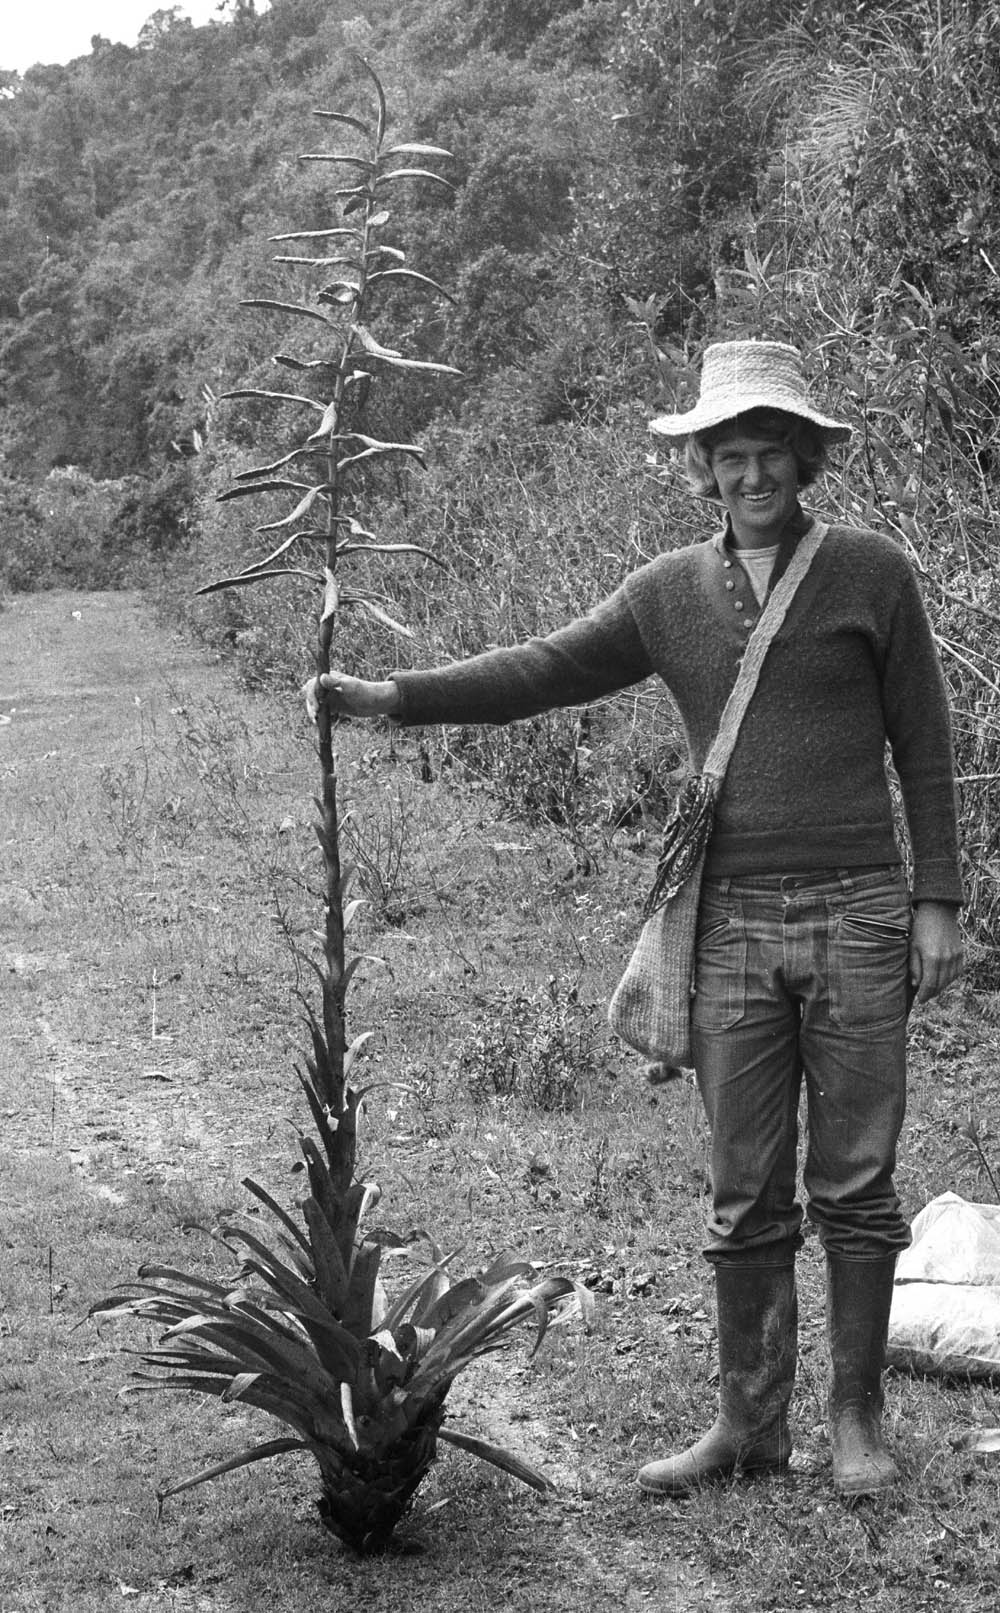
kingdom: Plantae
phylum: Tracheophyta
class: Liliopsida
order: Poales
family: Bromeliaceae
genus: Tillandsia
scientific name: Tillandsia pyramidata
